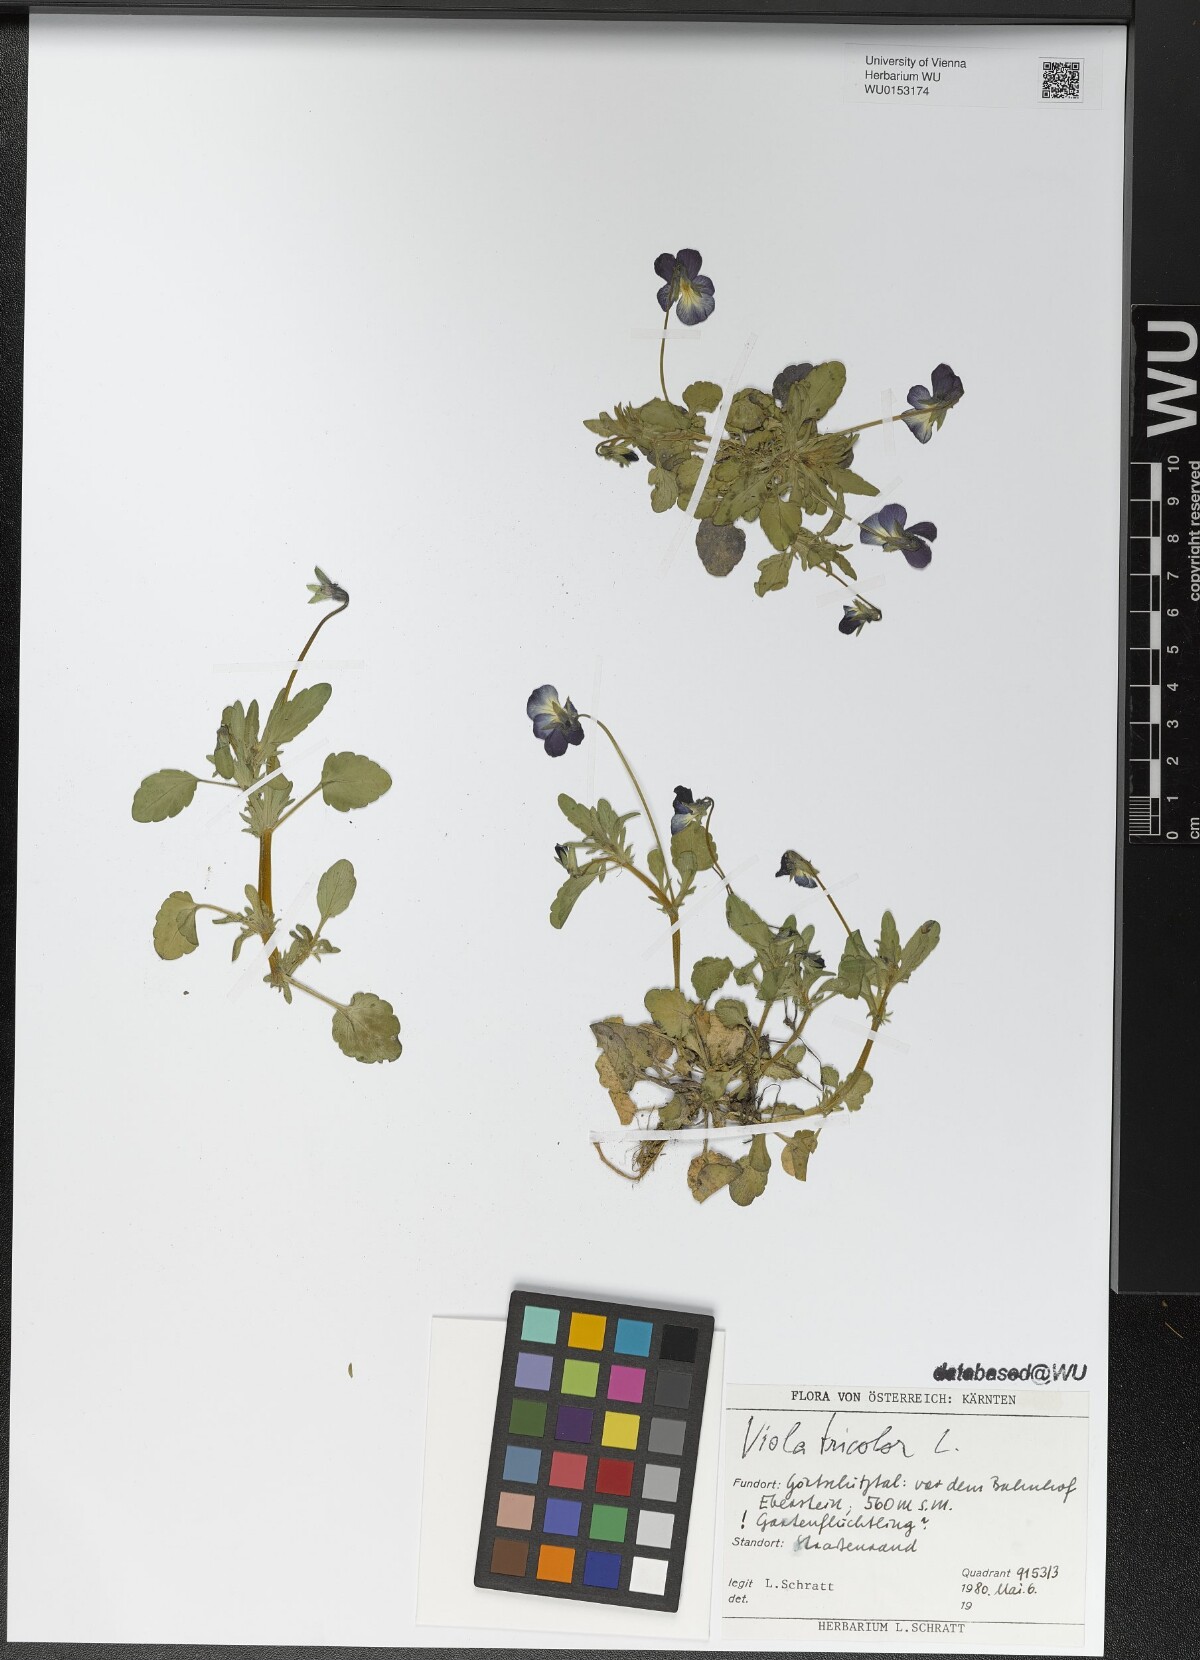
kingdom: Plantae
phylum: Tracheophyta
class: Magnoliopsida
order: Malpighiales
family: Violaceae
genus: Viola
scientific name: Viola tricolor
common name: Pansy
